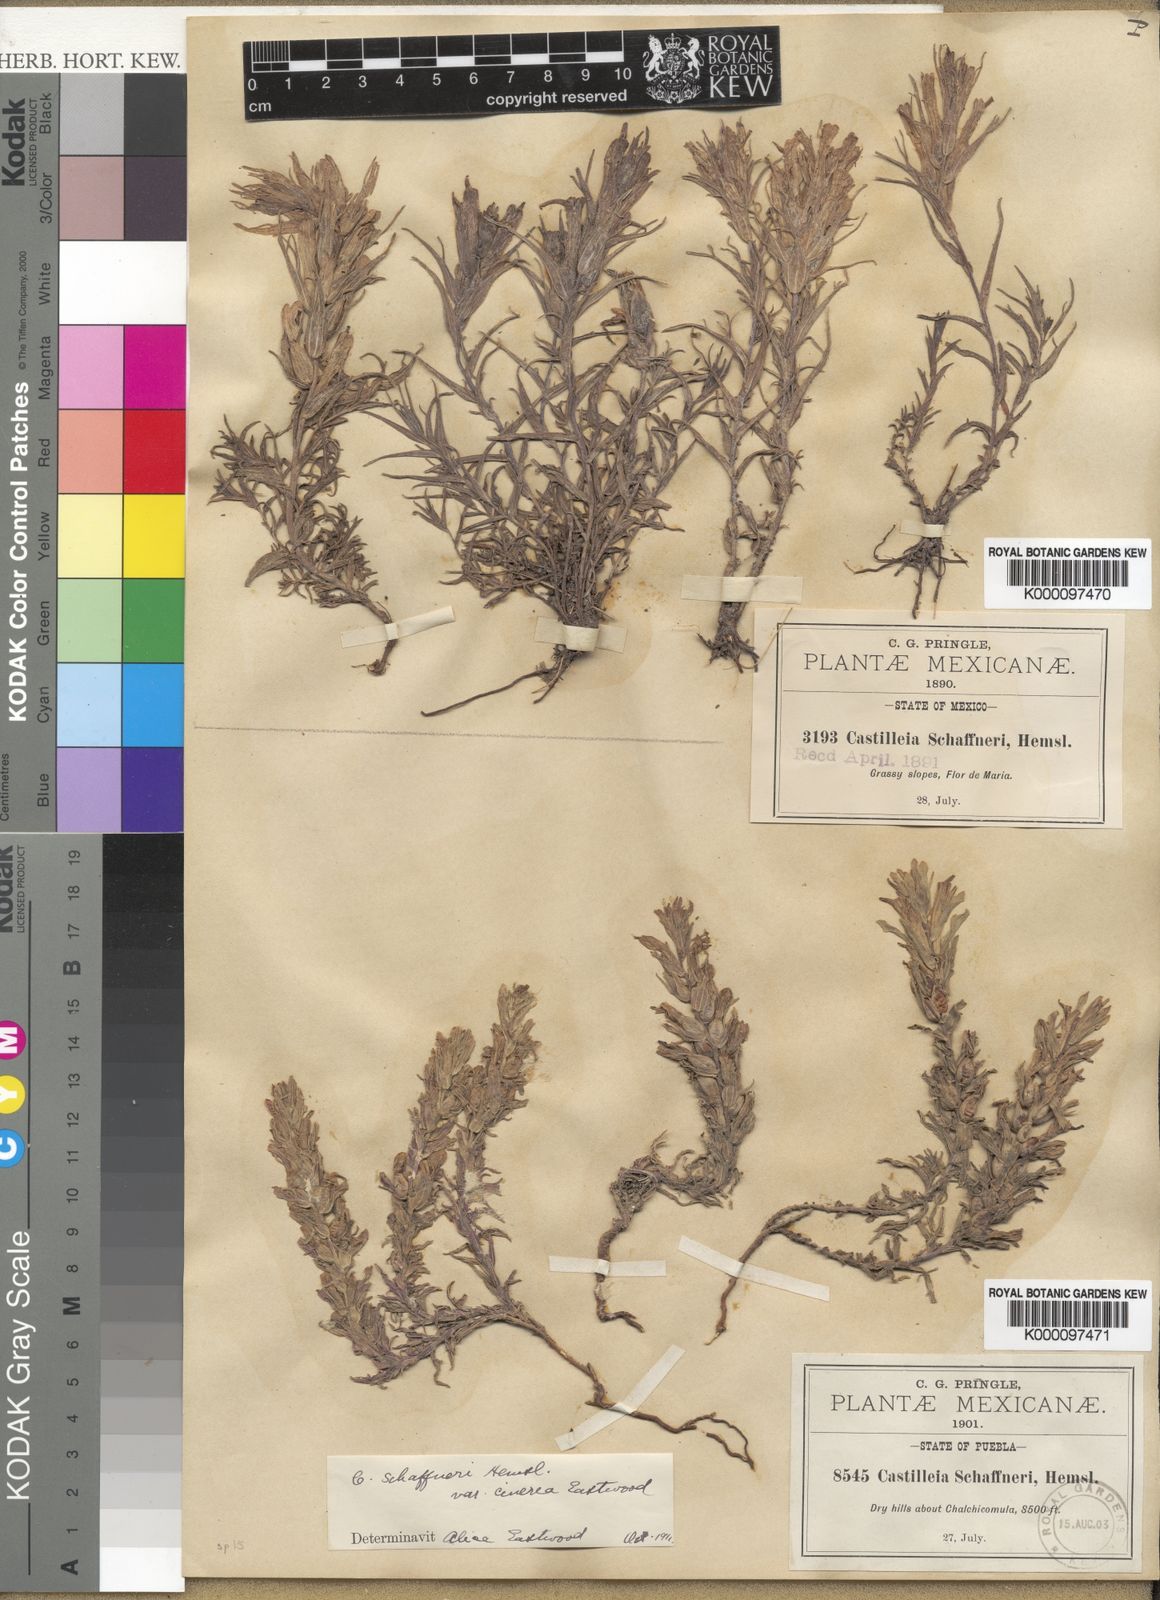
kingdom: Plantae
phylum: Tracheophyta
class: Magnoliopsida
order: Lamiales
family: Orobanchaceae
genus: Castilleja
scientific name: Castilleja moranensis
